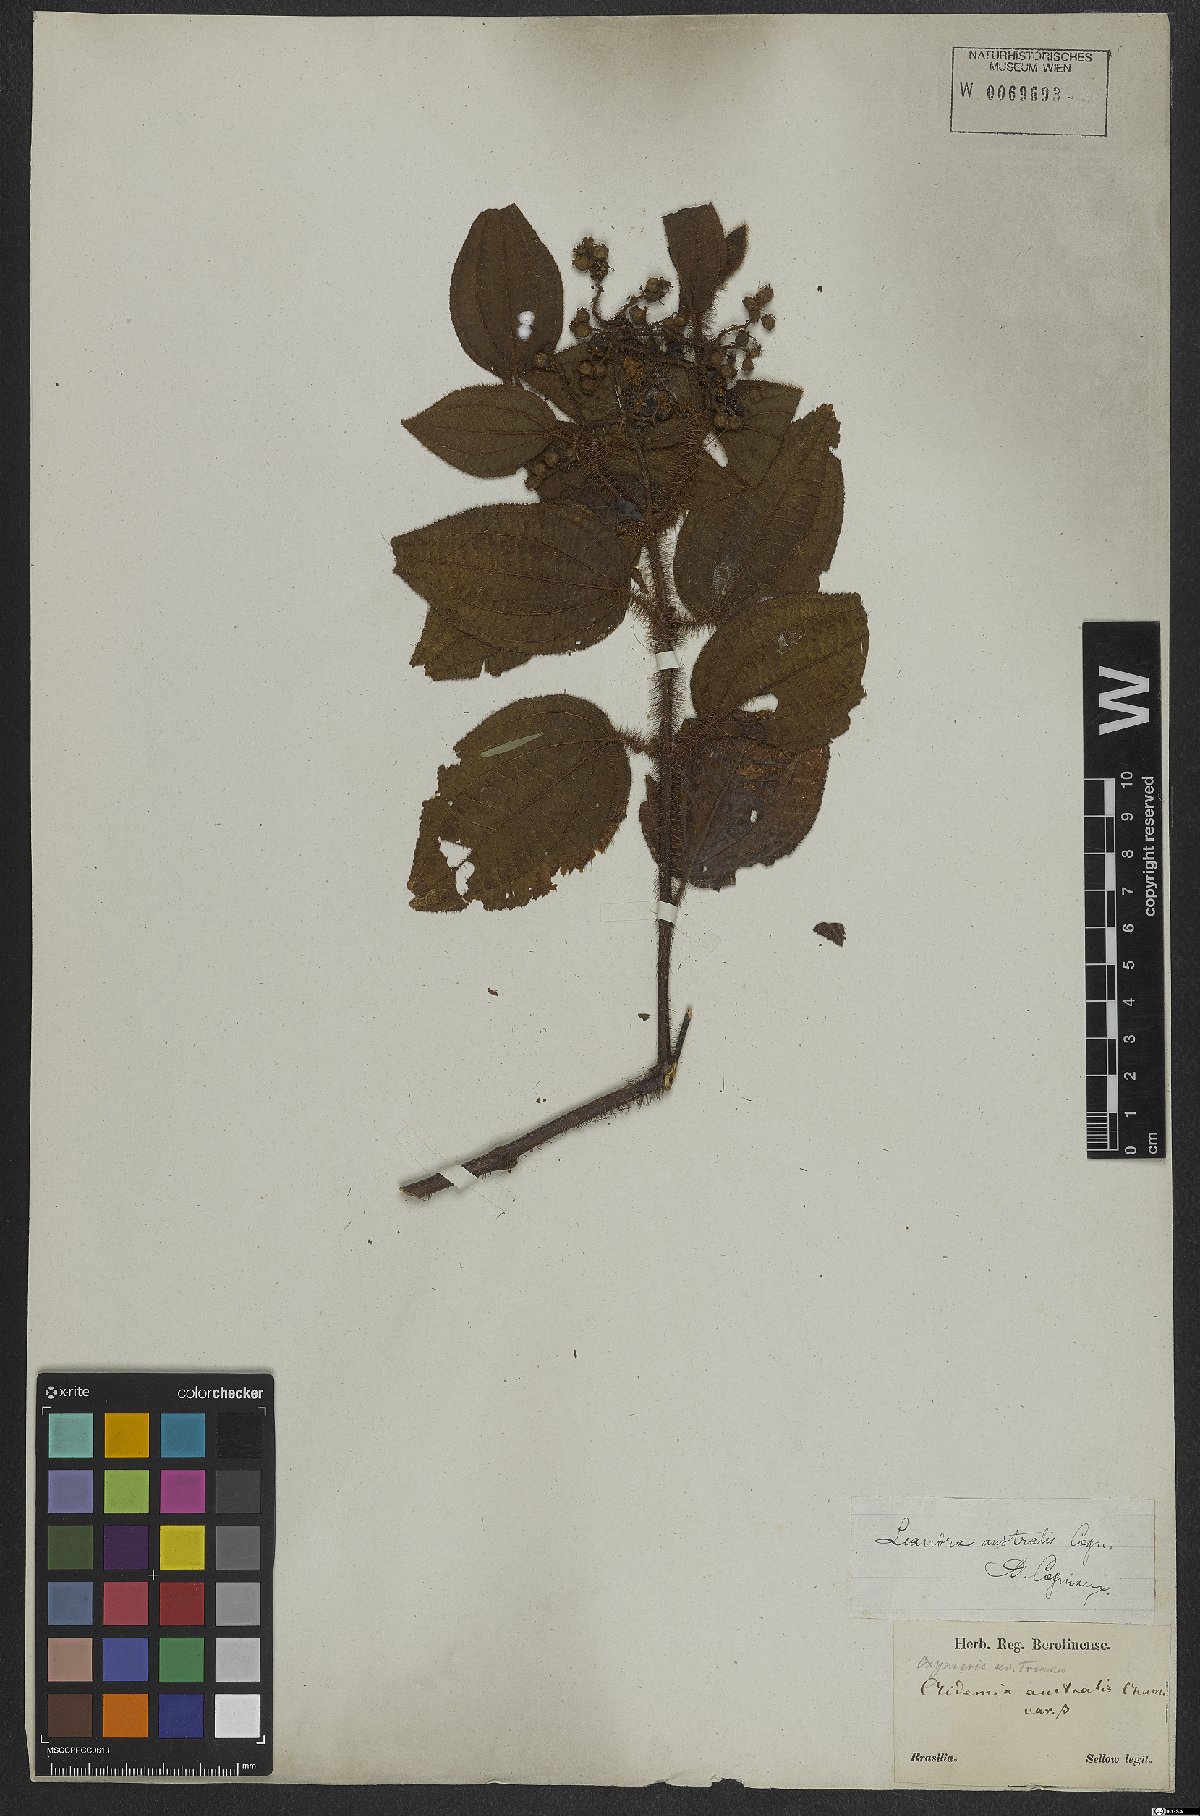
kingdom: Plantae
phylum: Tracheophyta
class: Magnoliopsida
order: Myrtales
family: Melastomataceae
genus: Miconia
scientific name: Miconia australis
